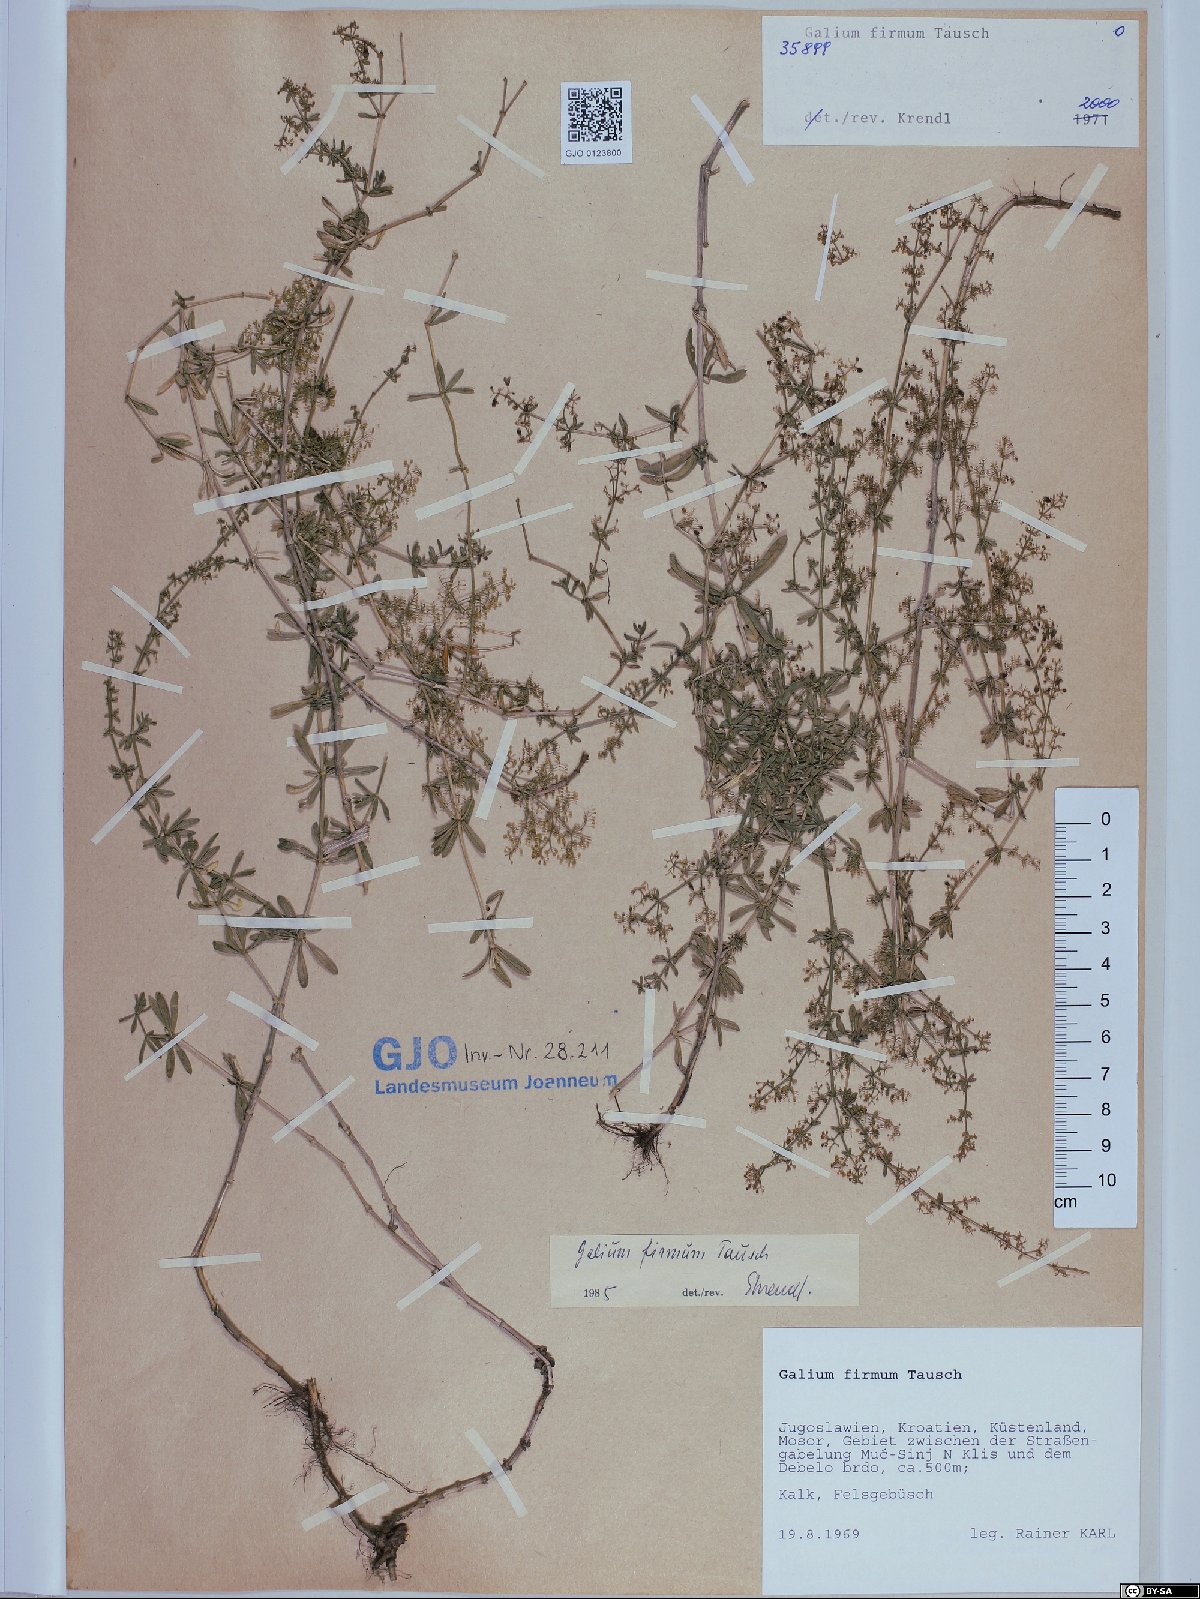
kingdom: Plantae
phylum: Tracheophyta
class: Magnoliopsida
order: Gentianales
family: Rubiaceae
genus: Galium
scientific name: Galium firmum
